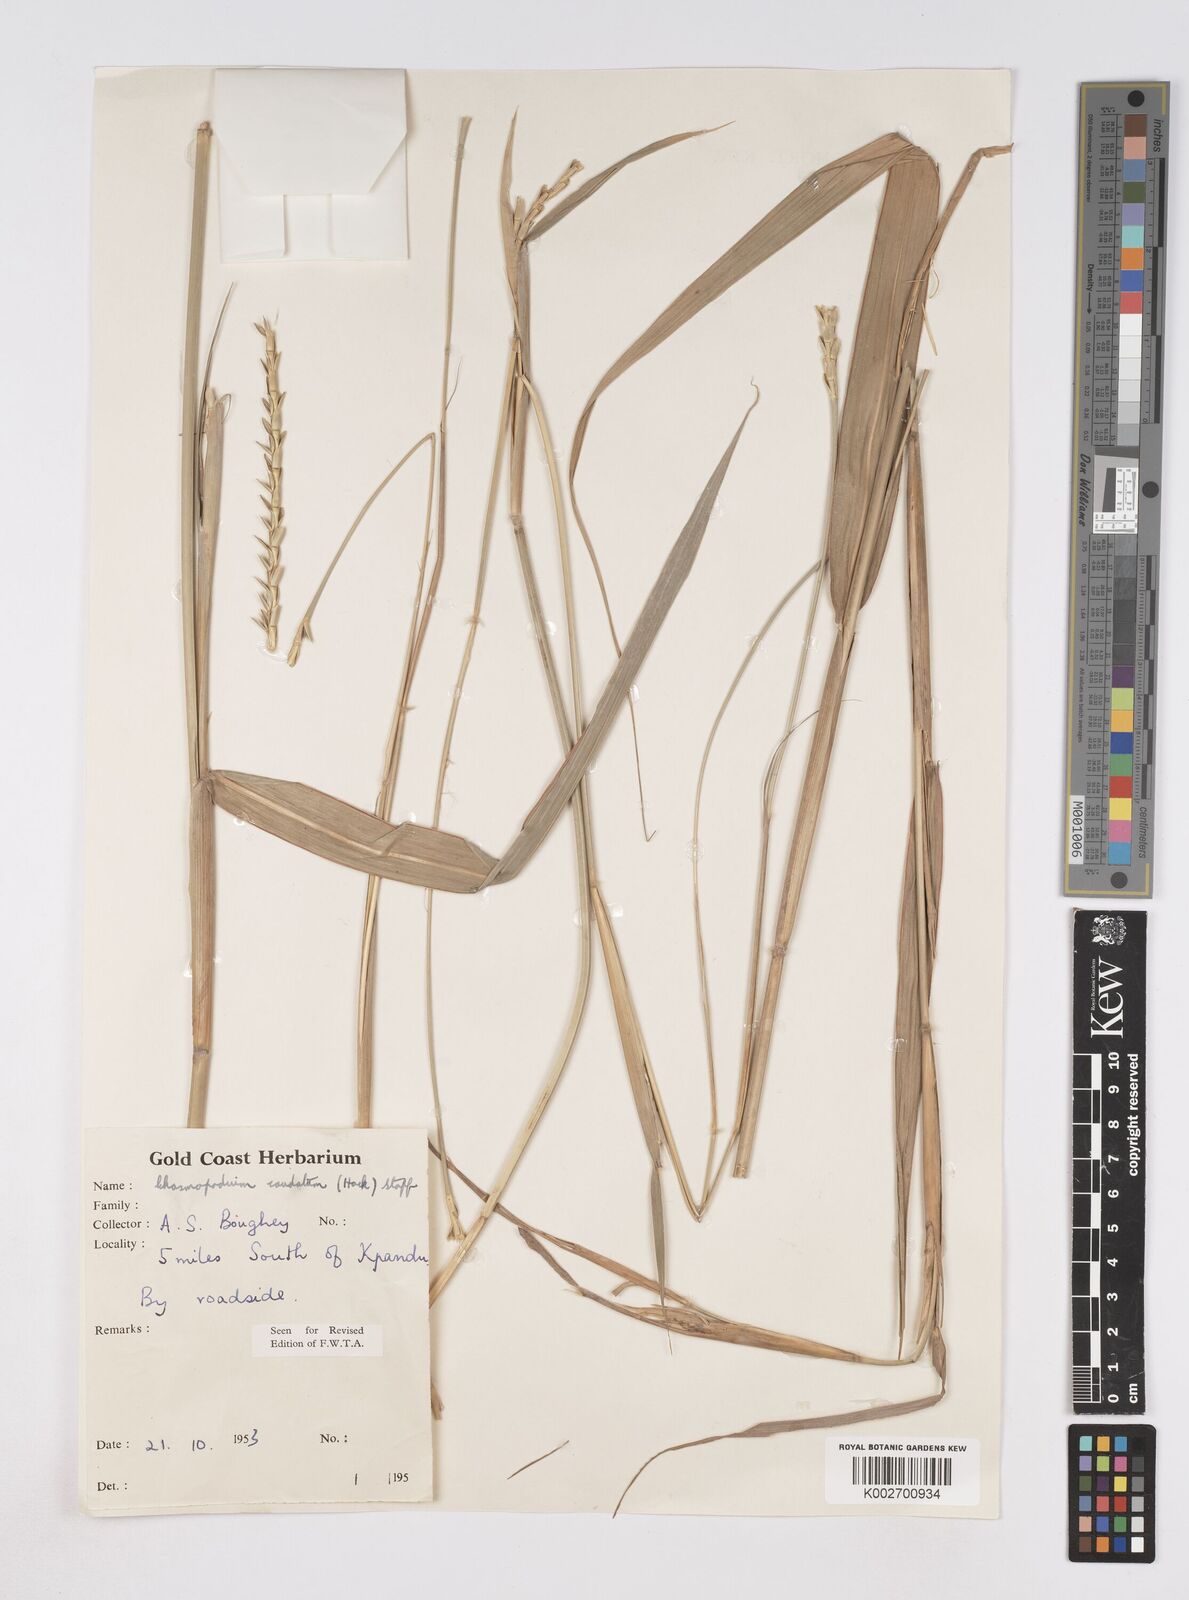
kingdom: Plantae
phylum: Tracheophyta
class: Liliopsida
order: Poales
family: Poaceae
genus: Chasmopodium
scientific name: Chasmopodium afzelii
